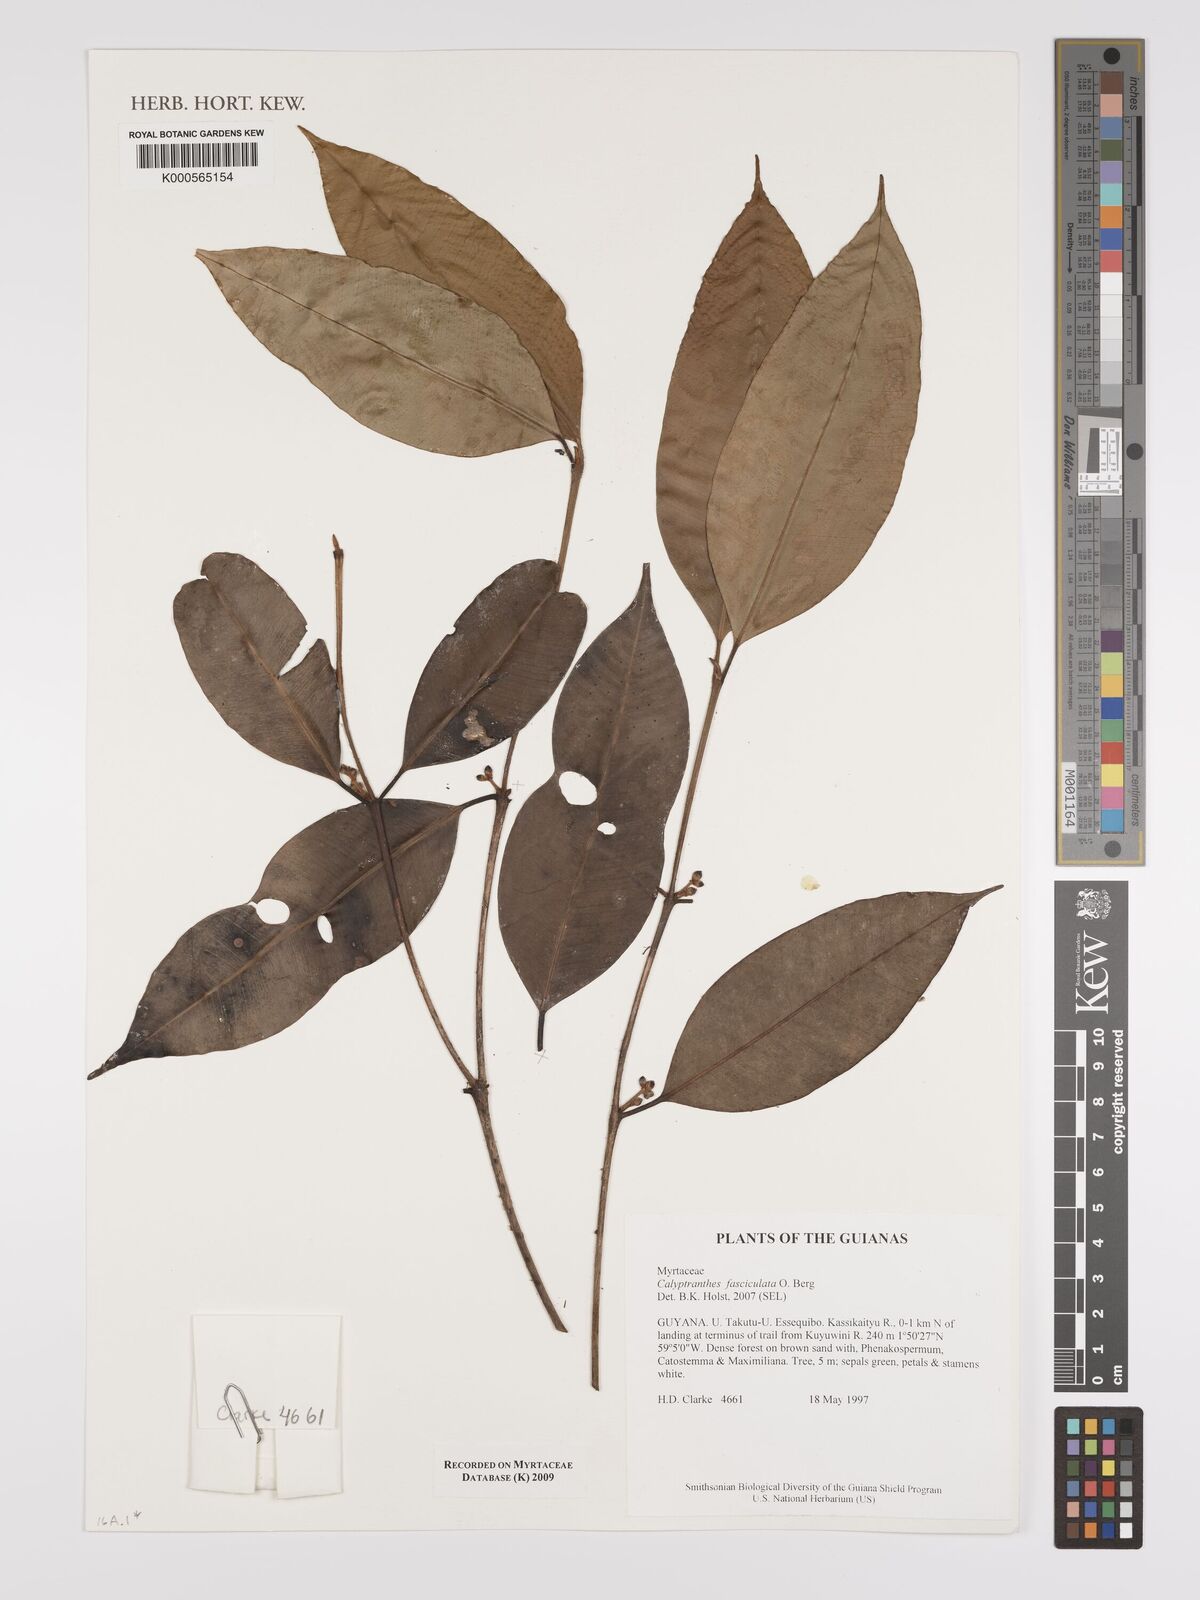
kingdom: Plantae
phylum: Tracheophyta
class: Magnoliopsida
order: Myrtales
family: Myrtaceae
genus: Myrcia
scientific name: Myrcia fasciculata
